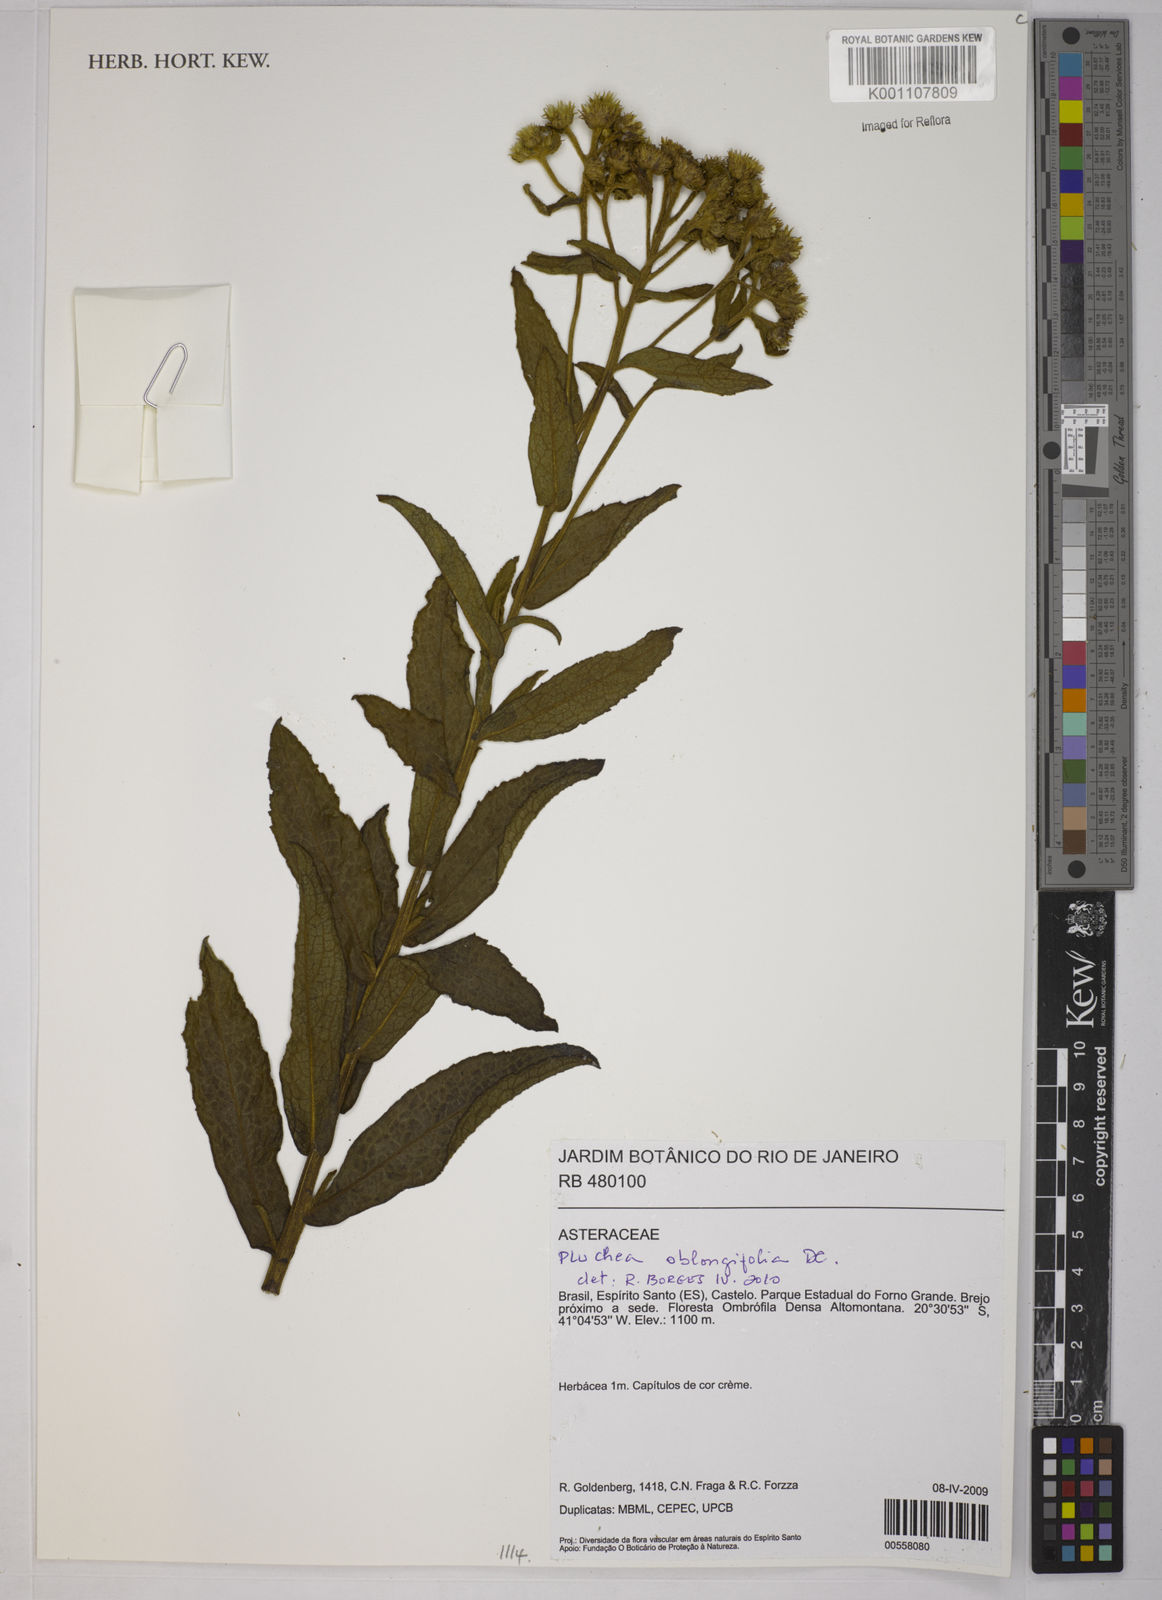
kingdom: Plantae
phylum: Tracheophyta
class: Magnoliopsida
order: Asterales
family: Asteraceae
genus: Pluchea
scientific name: Pluchea oblongifolia
